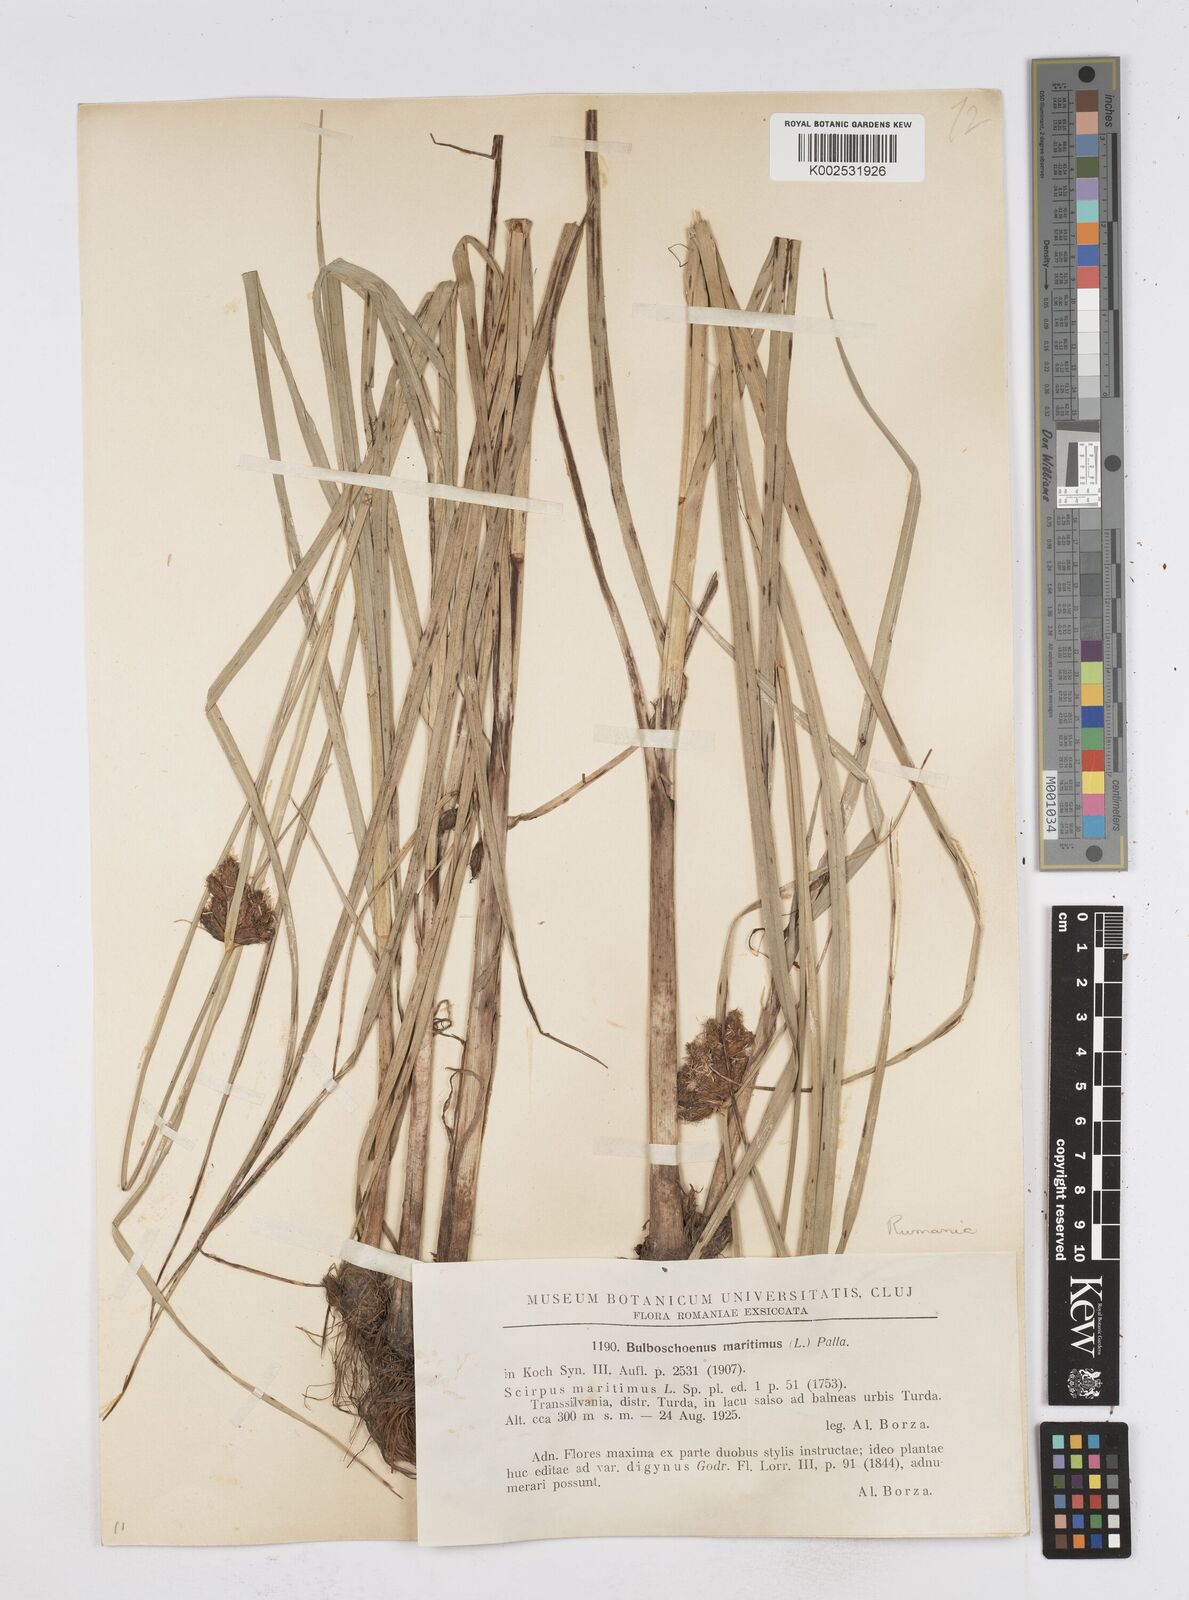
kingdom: Plantae
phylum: Tracheophyta
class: Liliopsida
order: Poales
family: Cyperaceae
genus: Bolboschoenus
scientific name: Bolboschoenus maritimus
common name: Sea club-rush
